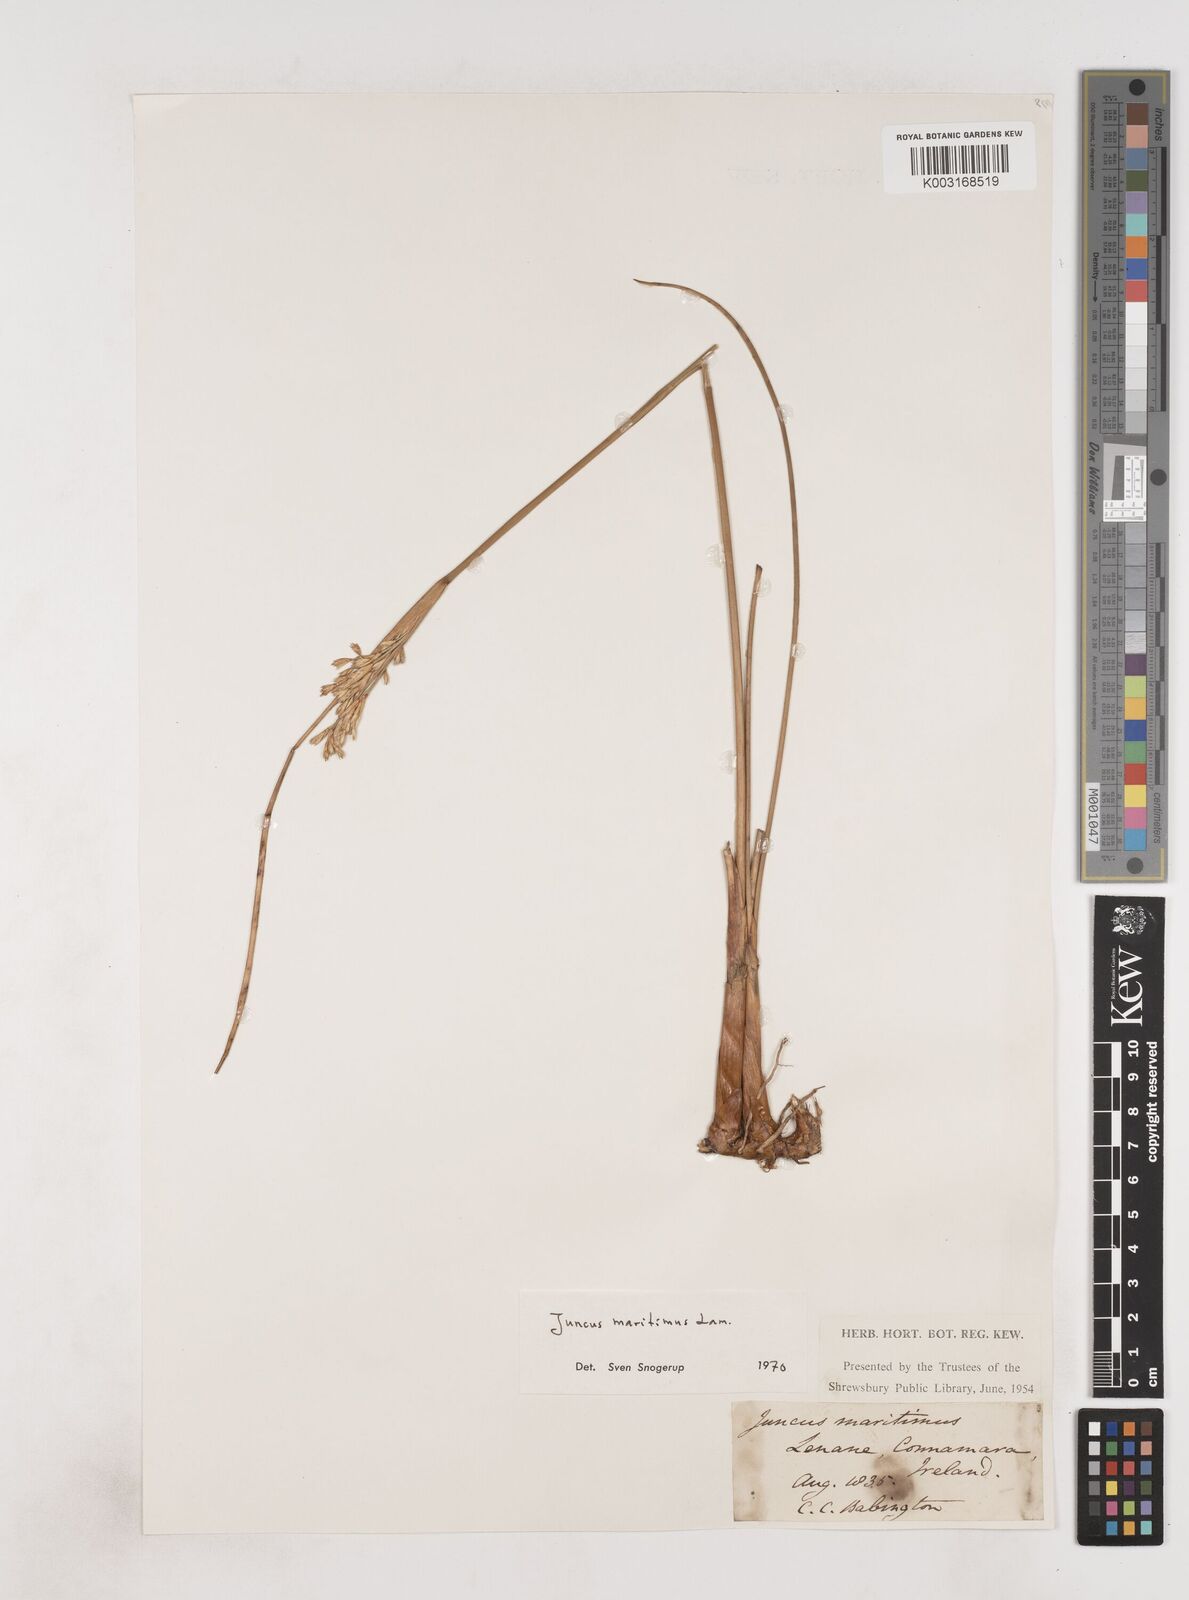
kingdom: Plantae
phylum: Tracheophyta
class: Liliopsida
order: Poales
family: Juncaceae
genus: Juncus
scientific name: Juncus maritimus
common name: Sea rush
